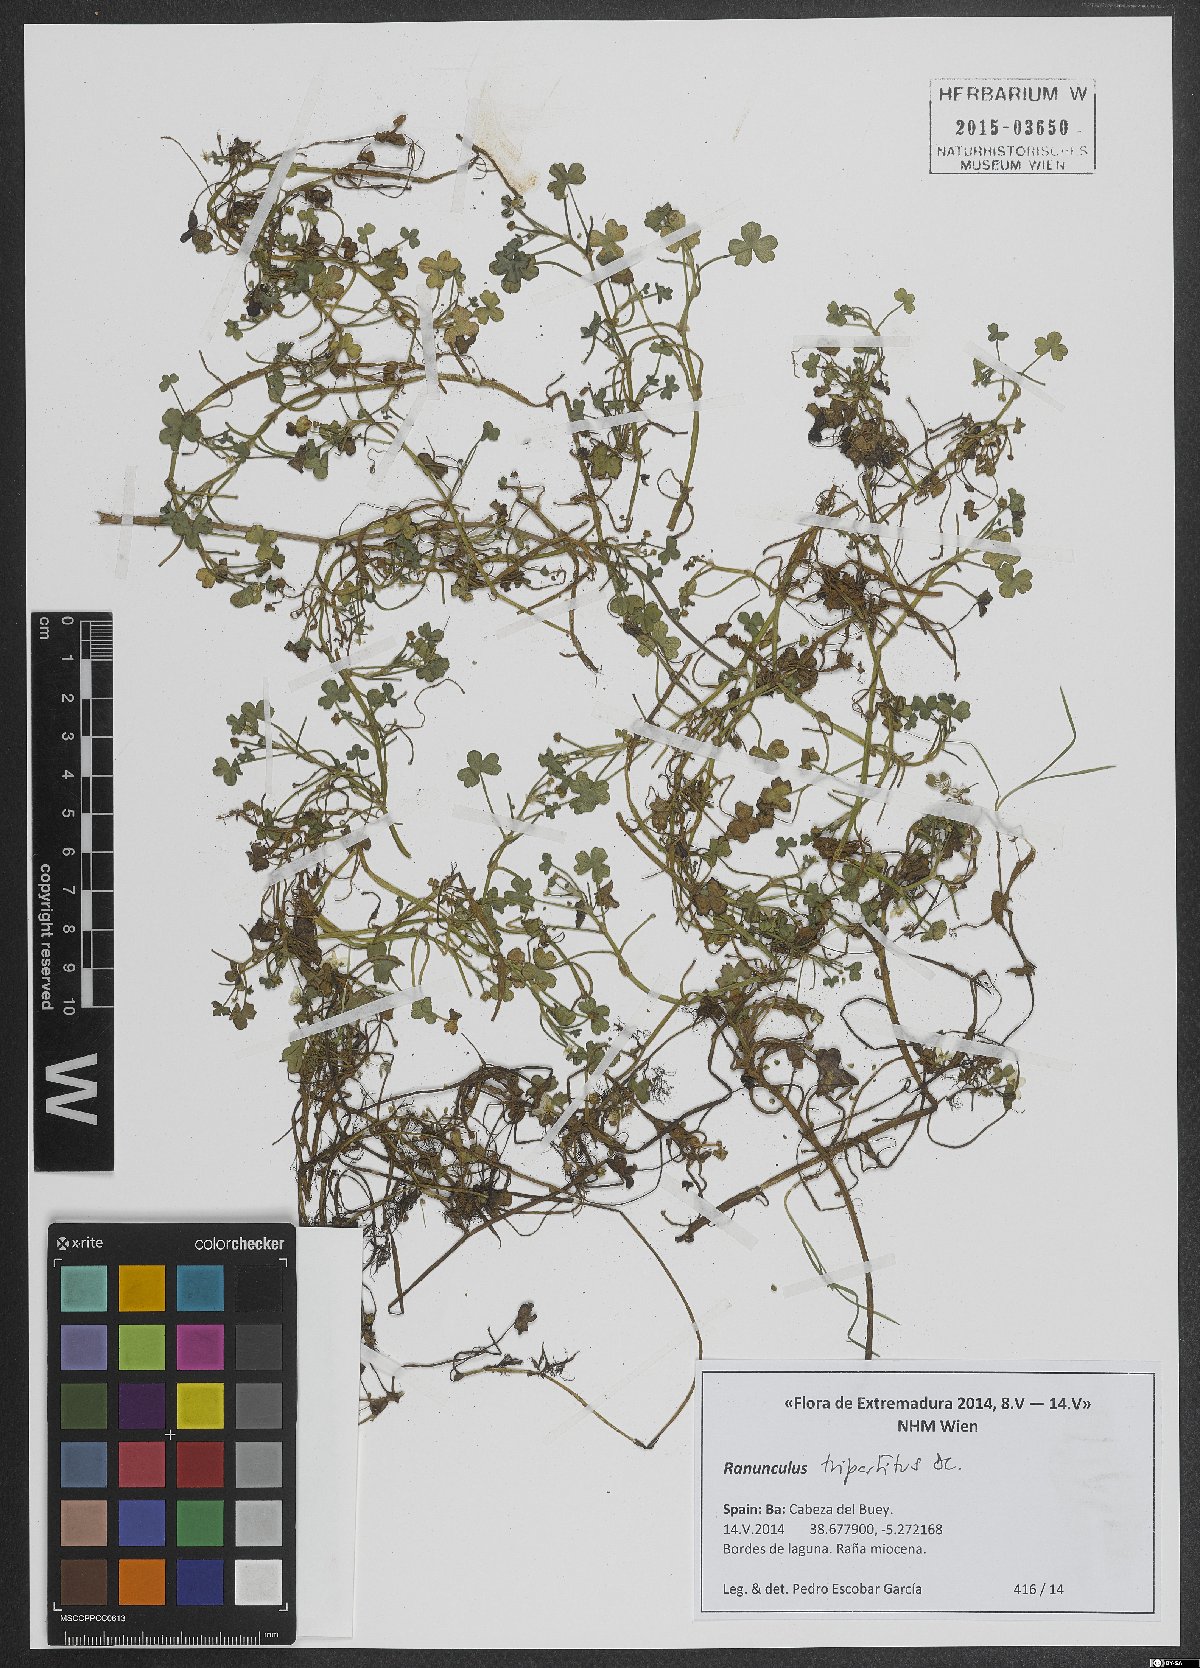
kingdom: Plantae
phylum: Tracheophyta
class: Magnoliopsida
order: Ranunculales
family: Ranunculaceae
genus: Ranunculus
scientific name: Ranunculus tripartitus
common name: Three-lobed crowfoot
